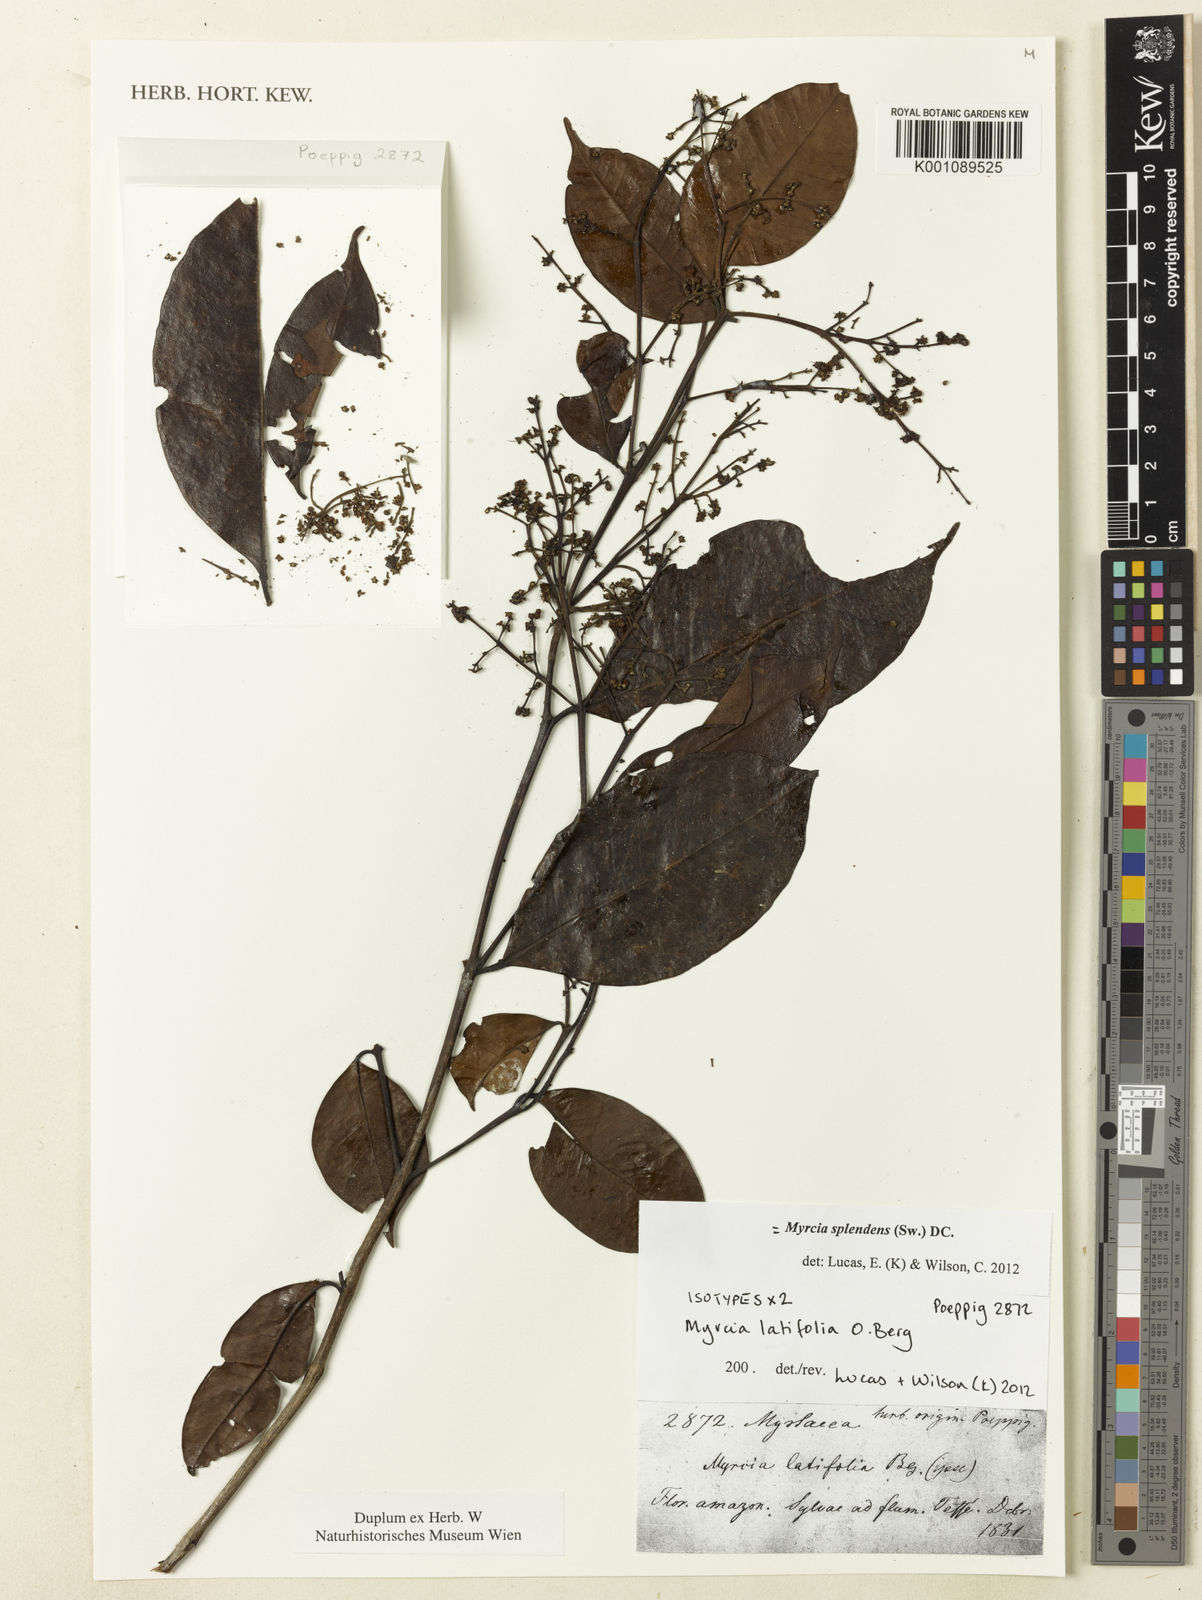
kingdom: Plantae
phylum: Tracheophyta
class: Magnoliopsida
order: Myrtales
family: Myrtaceae
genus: Myrcia
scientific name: Myrcia splendens
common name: Surinam cherry
